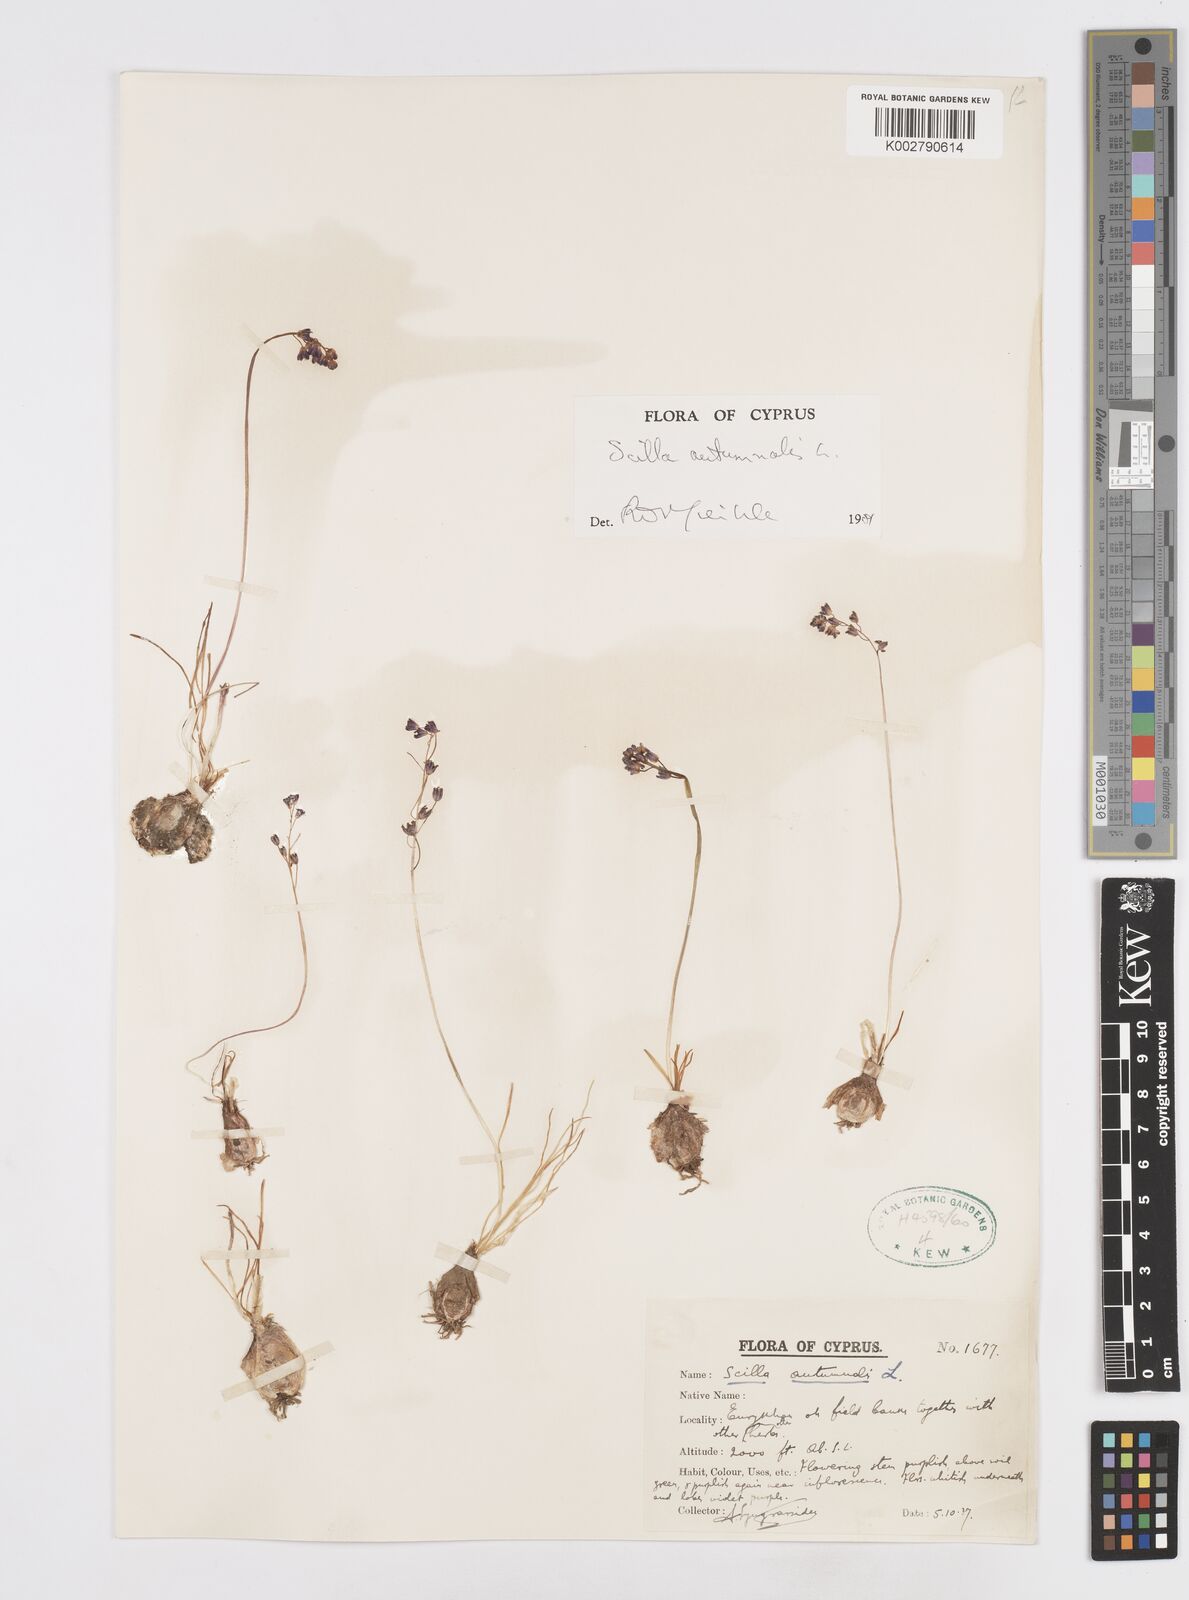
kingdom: Plantae
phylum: Tracheophyta
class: Liliopsida
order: Asparagales
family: Asparagaceae
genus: Prospero
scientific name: Prospero autumnale
